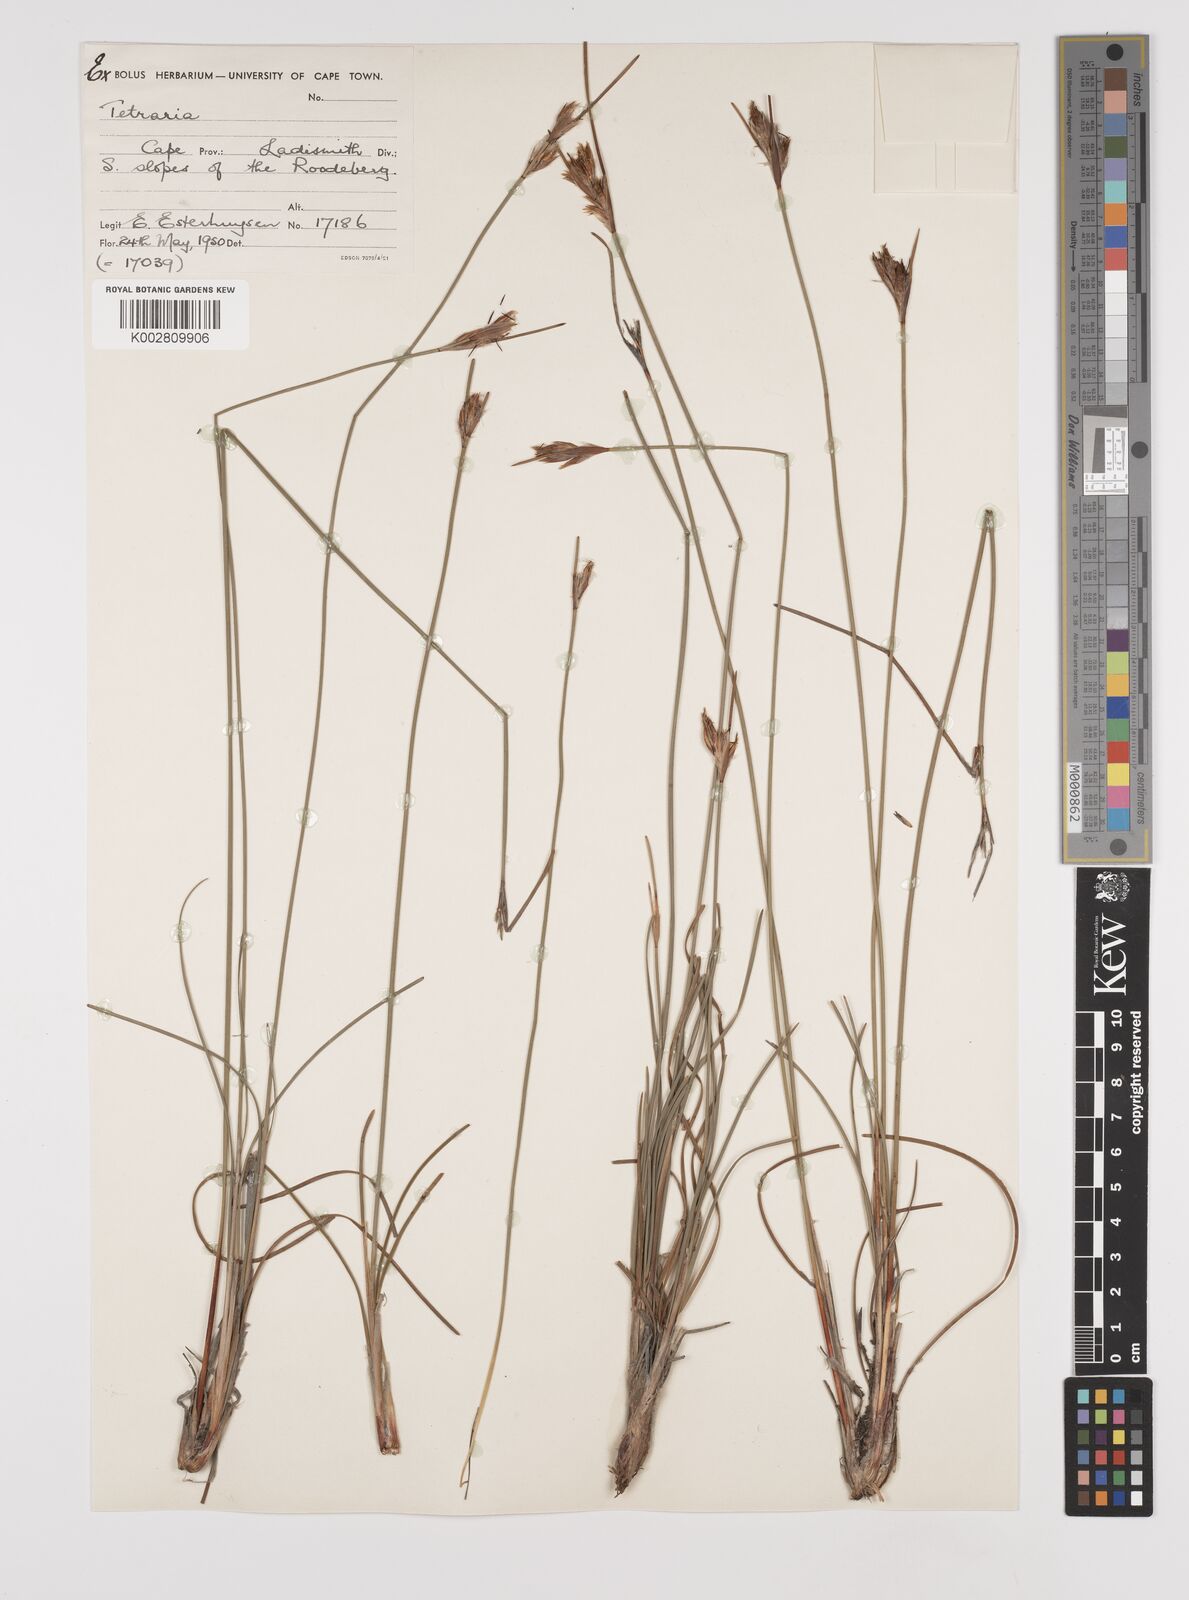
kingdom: Plantae
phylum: Tracheophyta
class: Liliopsida
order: Poales
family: Cyperaceae
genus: Schoenus
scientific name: Schoenus megacarpus
